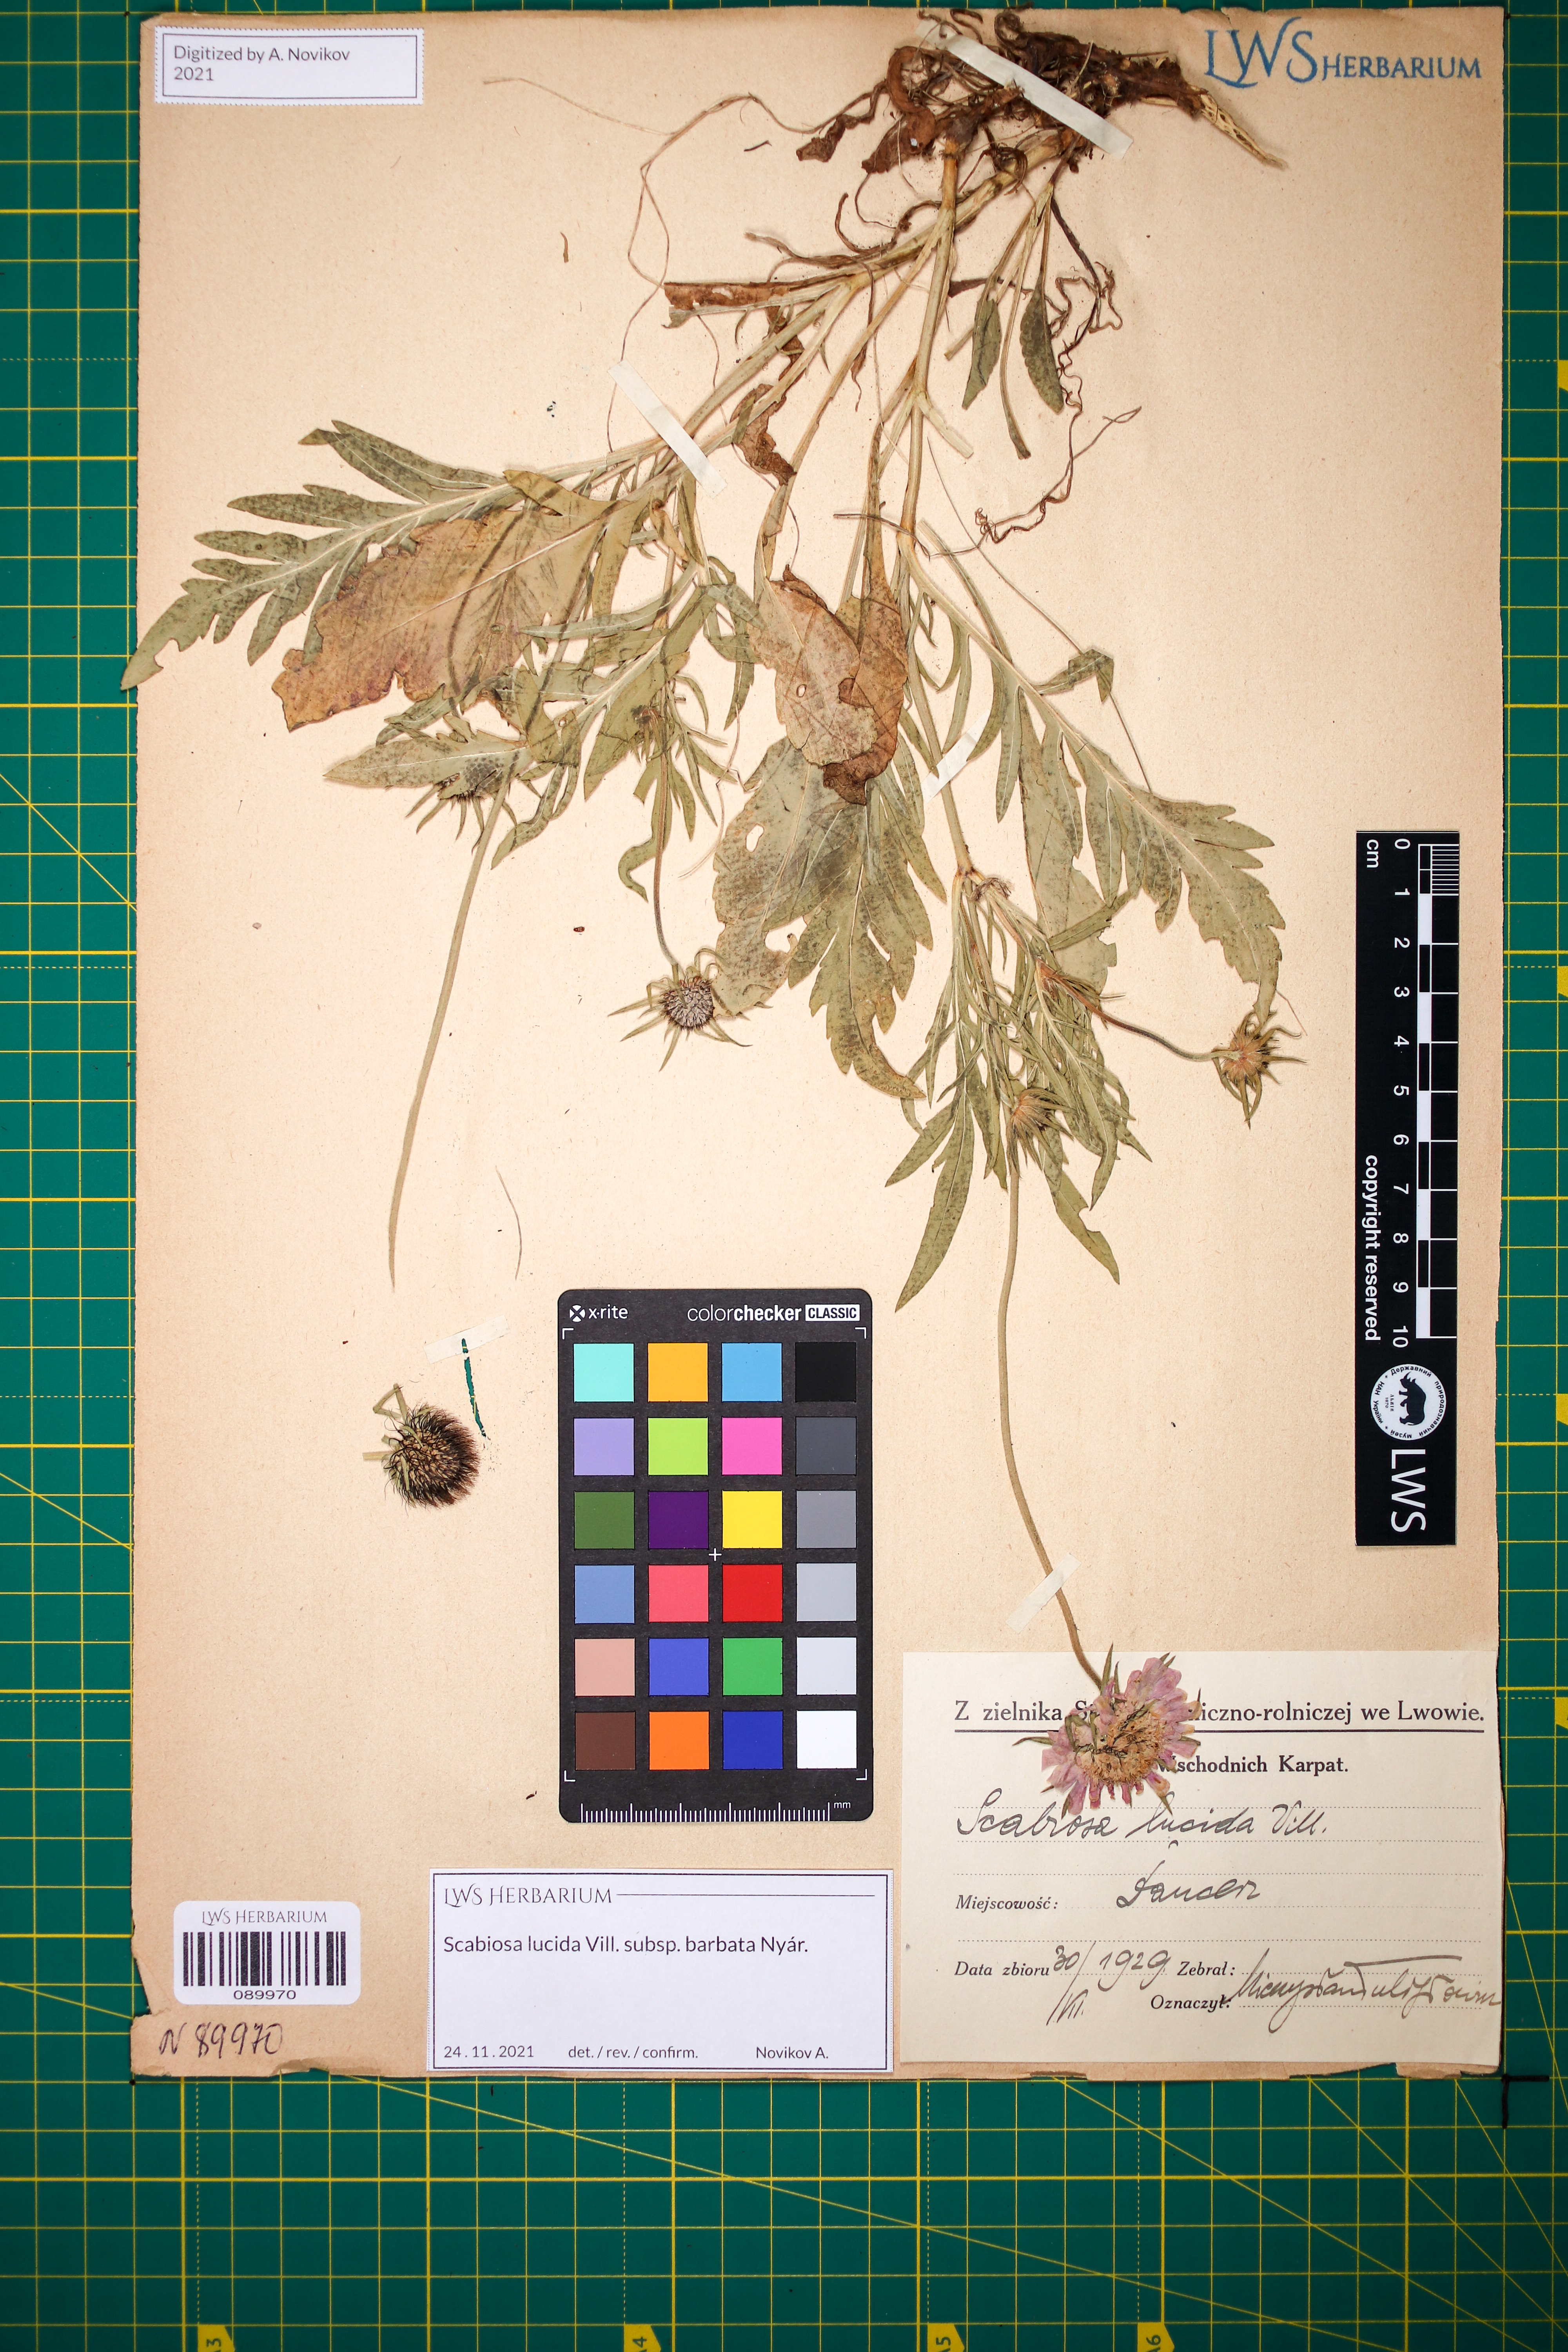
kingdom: Plantae
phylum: Tracheophyta
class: Magnoliopsida
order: Dipsacales
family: Caprifoliaceae
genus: Scabiosa
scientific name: Scabiosa lucida
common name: Shining scabious
